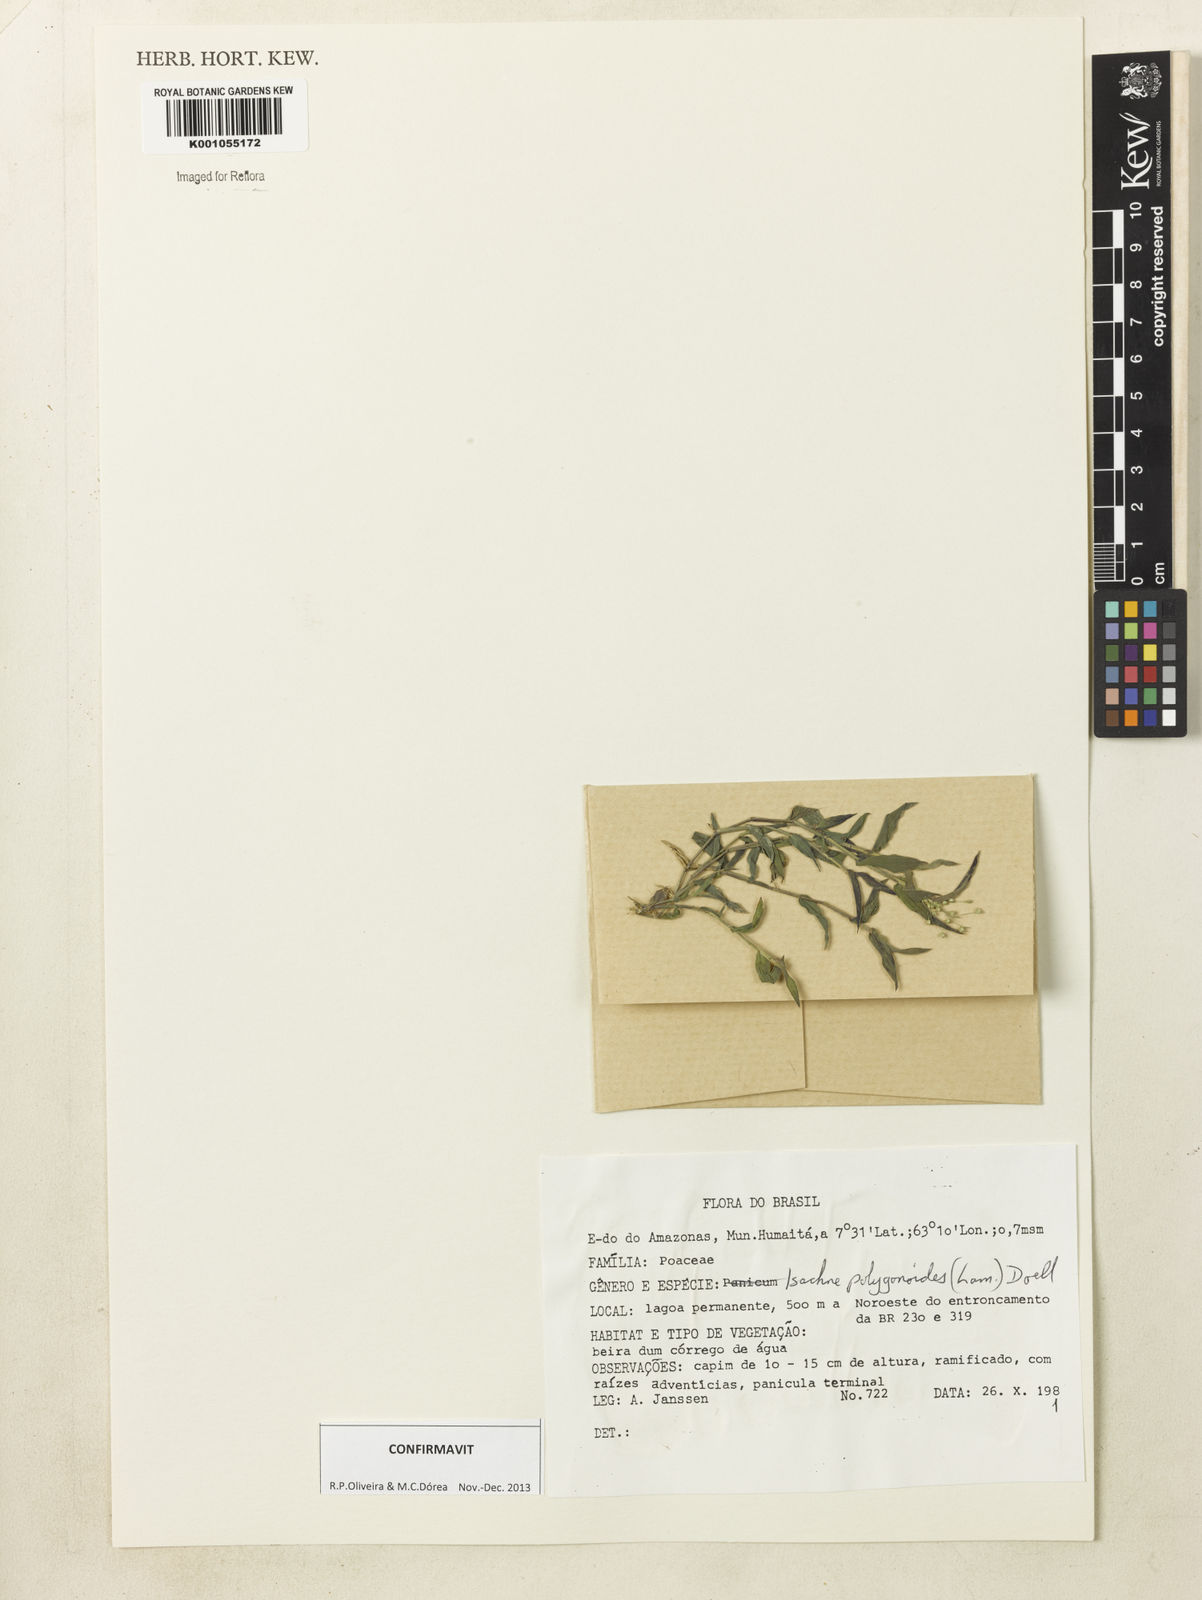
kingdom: Plantae
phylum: Tracheophyta
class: Liliopsida
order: Poales
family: Poaceae
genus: Isachne
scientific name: Isachne
